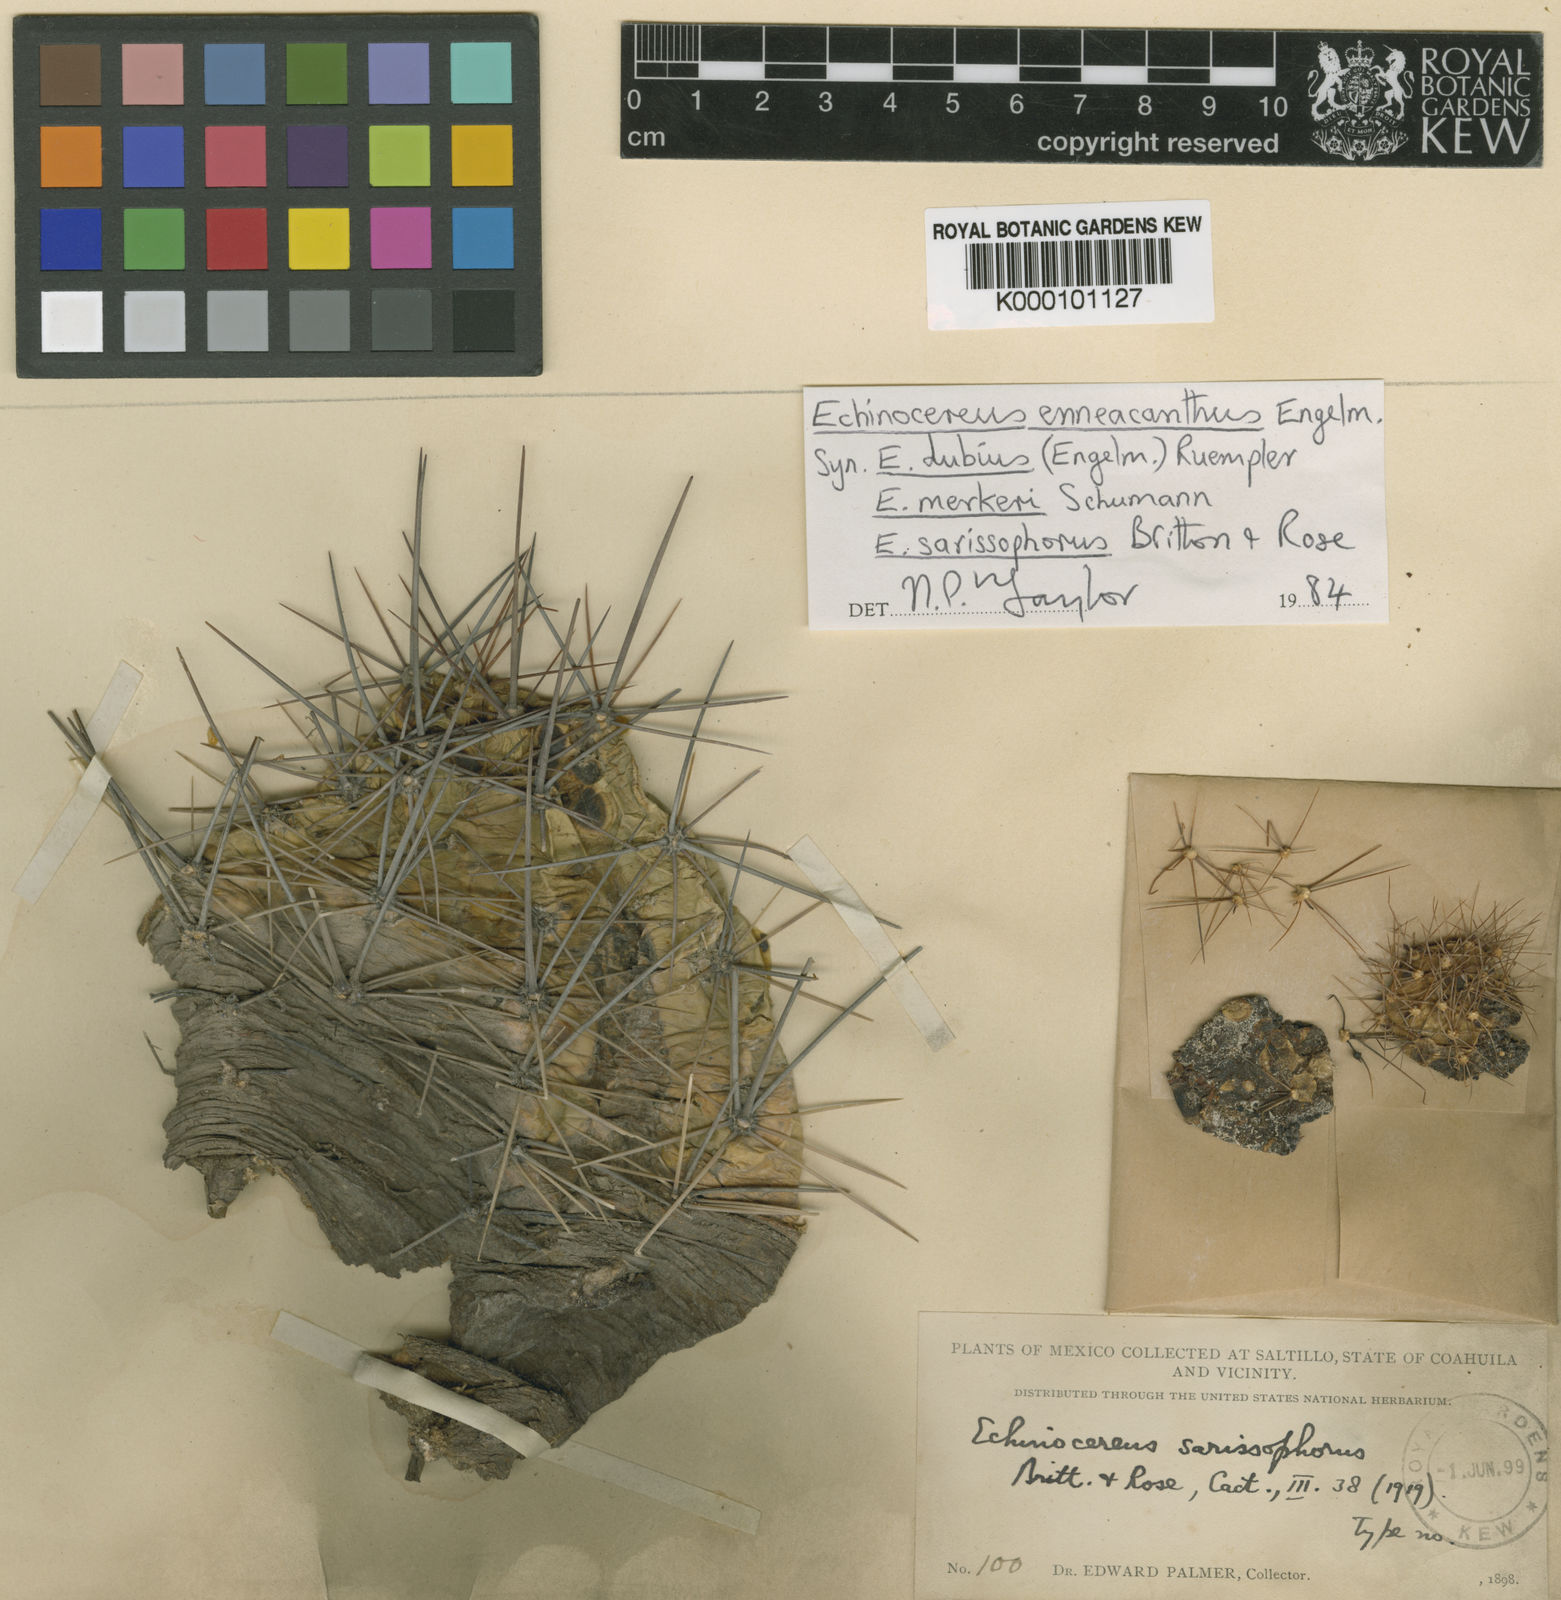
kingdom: Plantae
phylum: Tracheophyta
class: Magnoliopsida
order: Caryophyllales
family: Cactaceae
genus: Echinocereus
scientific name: Echinocereus enneacanthus
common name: Pitaya
